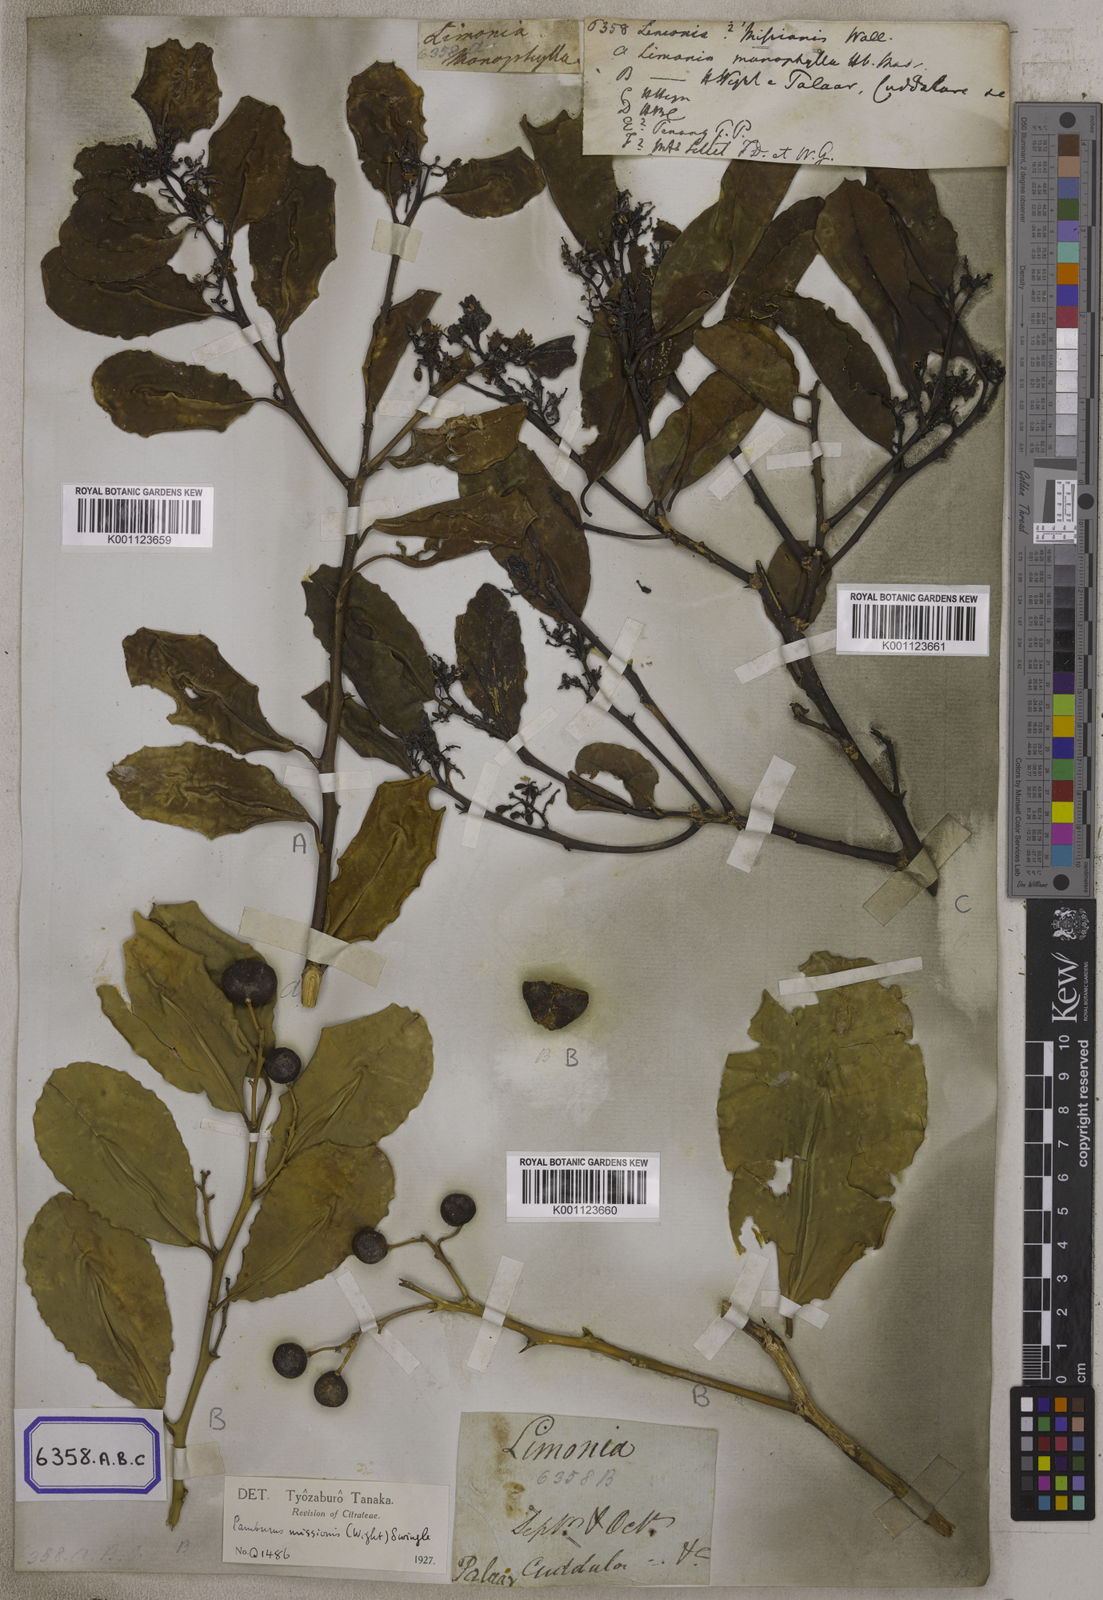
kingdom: Plantae
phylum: Tracheophyta
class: Magnoliopsida
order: Sapindales
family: Rutaceae
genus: Limonia
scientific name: Limonia
